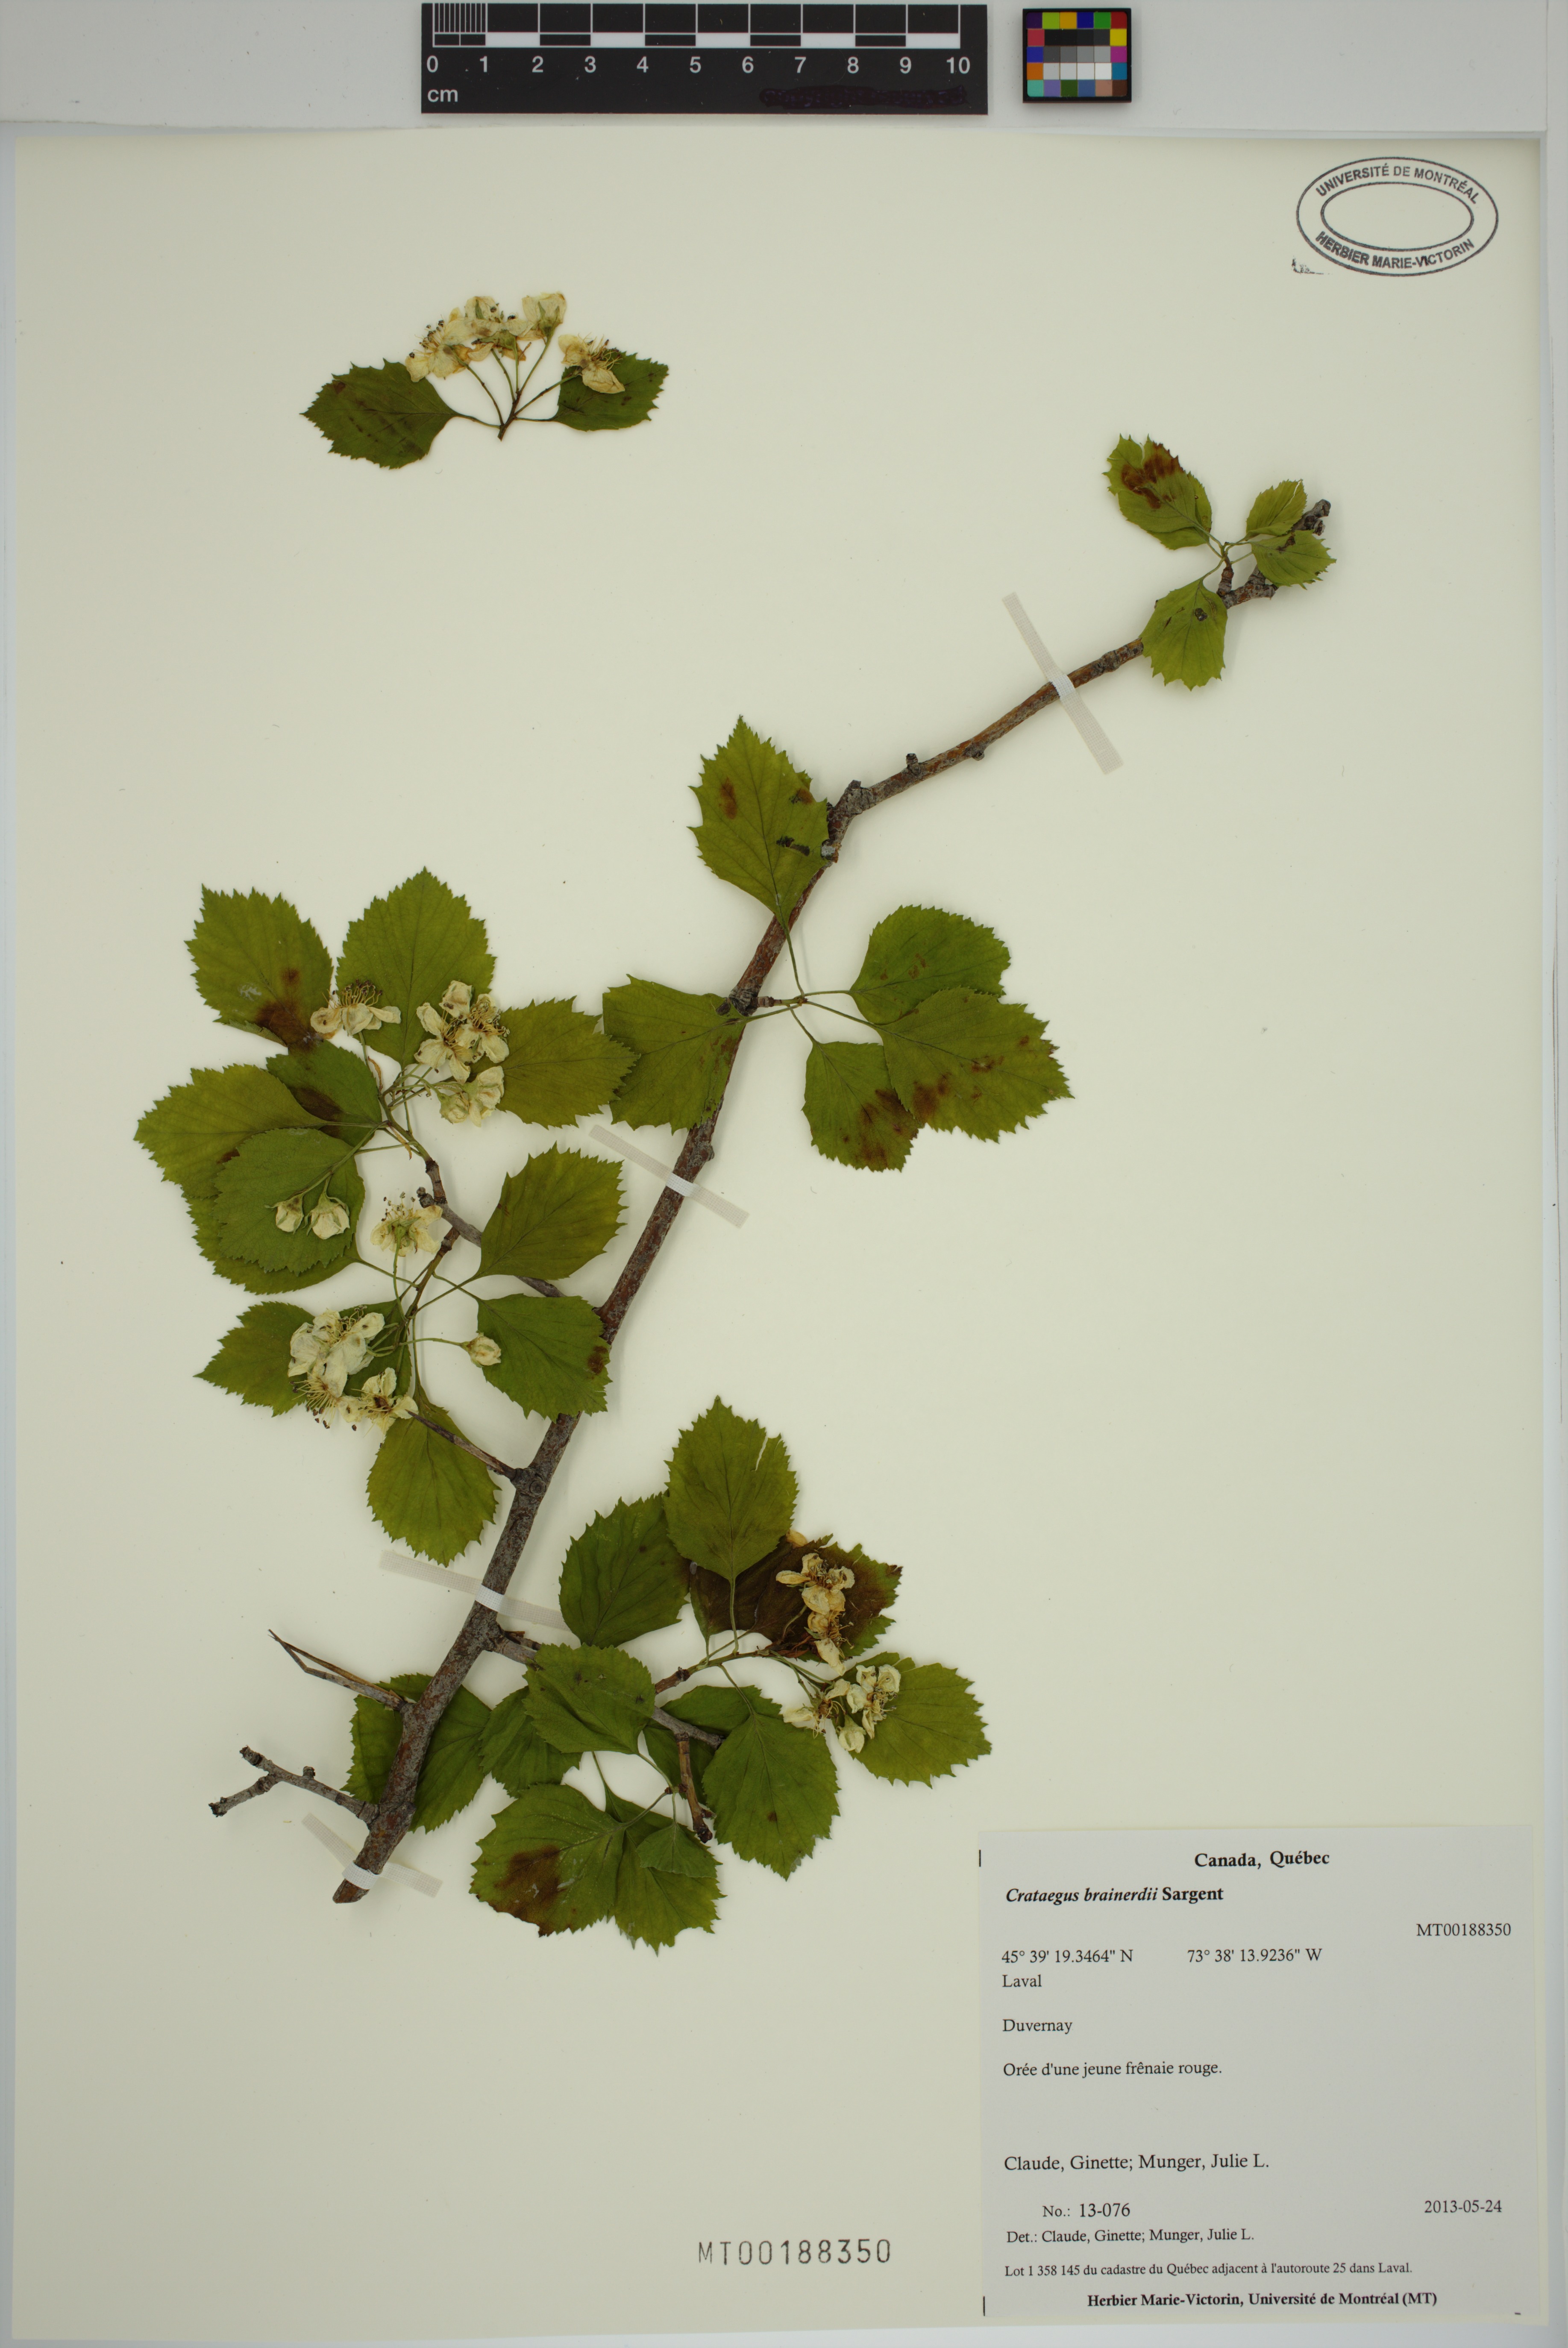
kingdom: Plantae
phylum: Tracheophyta
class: Magnoliopsida
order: Rosales
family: Rosaceae
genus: Crataegus
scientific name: Crataegus suborbiculata
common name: Caughnawaga hawthorn
